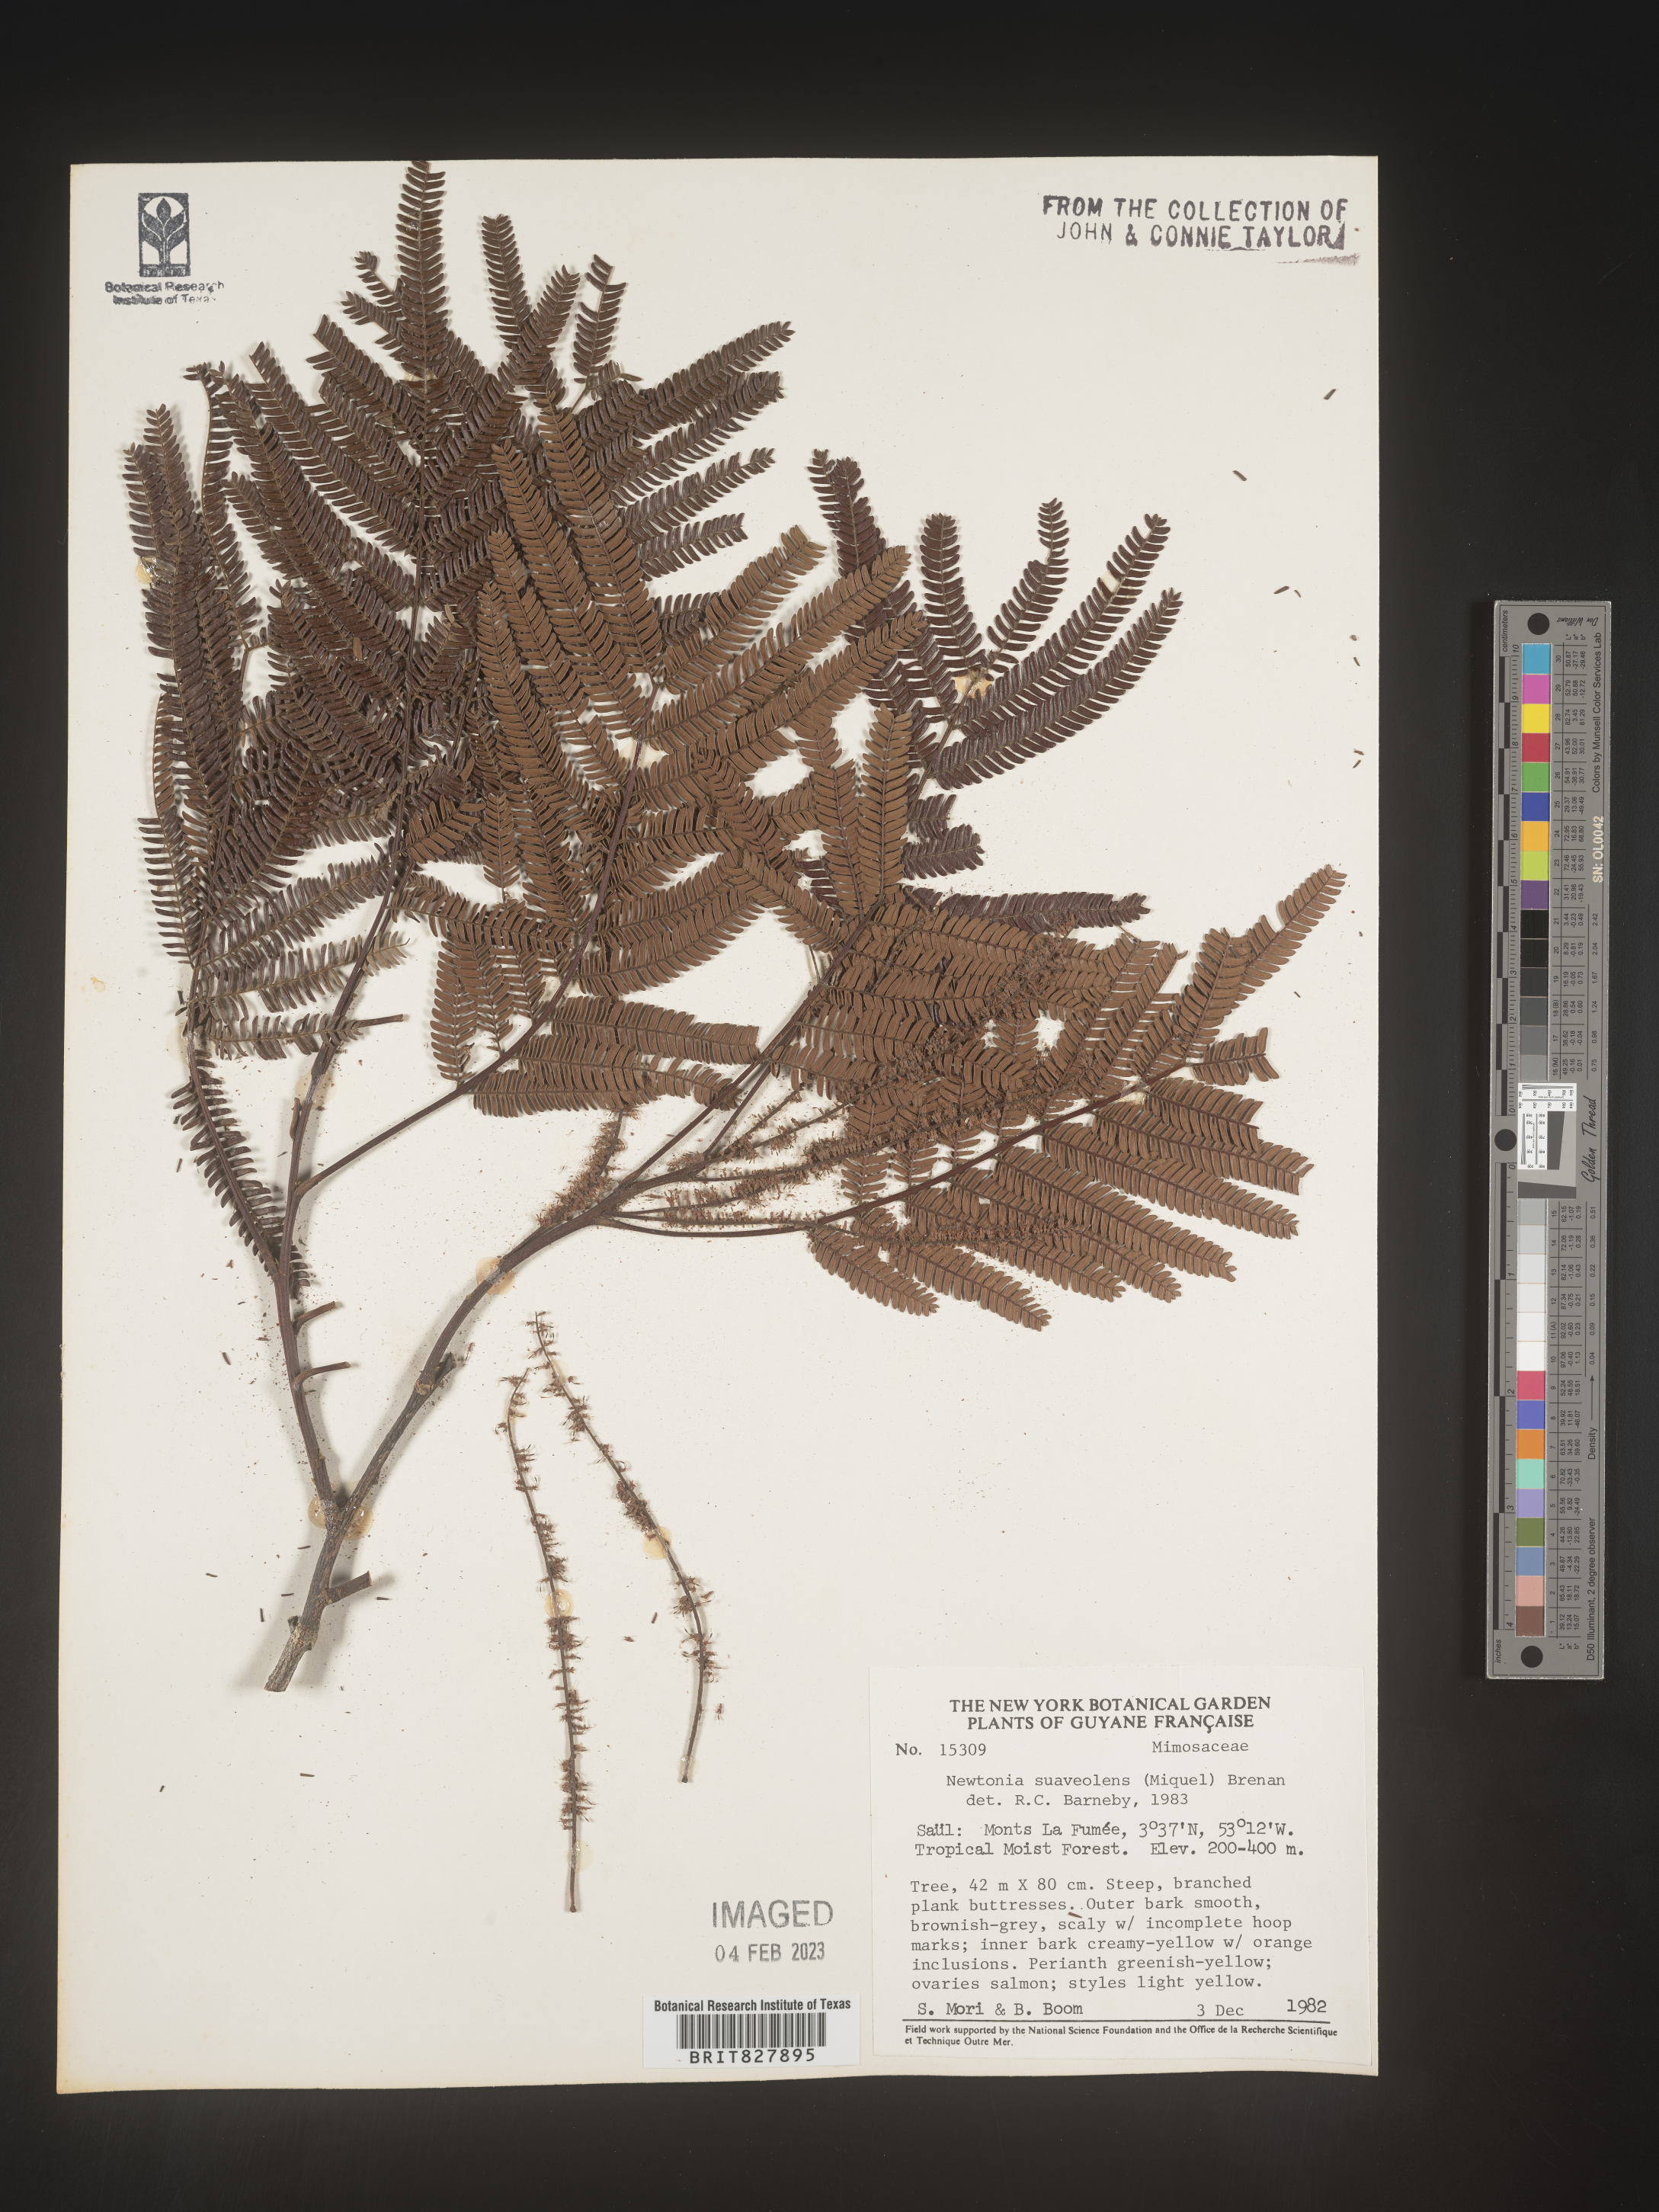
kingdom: Plantae
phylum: Tracheophyta
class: Magnoliopsida
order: Fabales
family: Fabaceae
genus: Newtonia
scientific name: Newtonia
